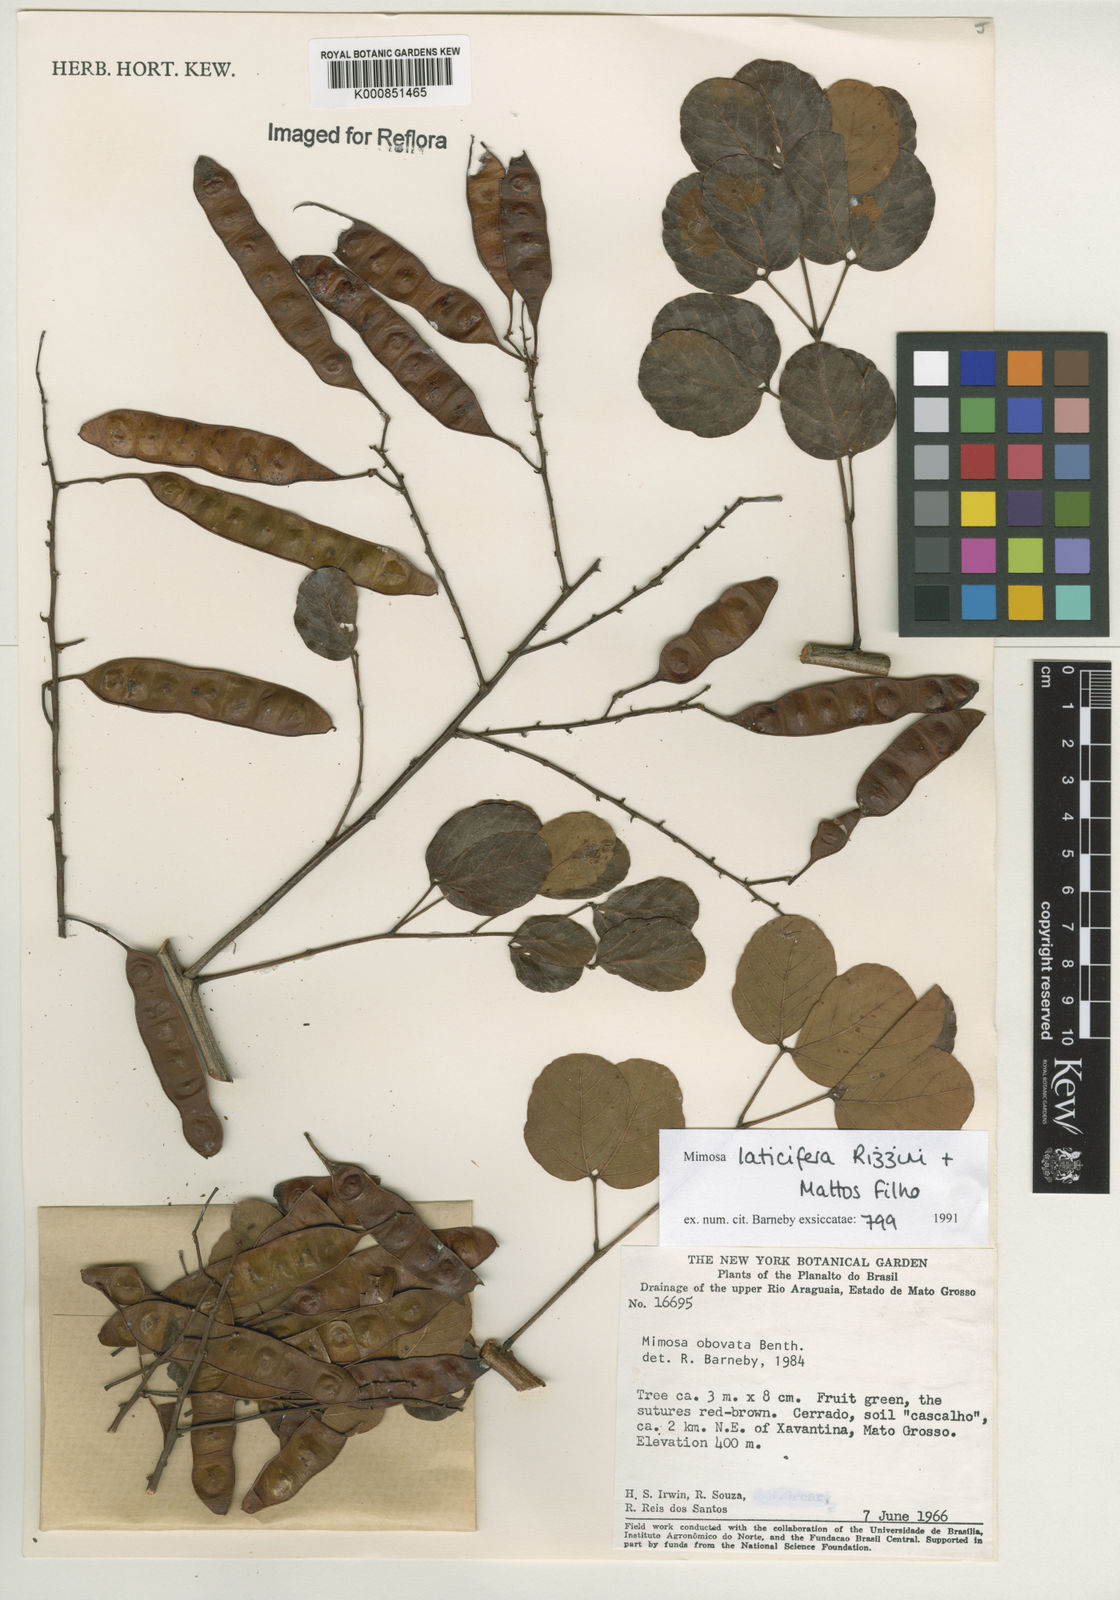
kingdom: Plantae
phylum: Tracheophyta
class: Magnoliopsida
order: Fabales
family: Fabaceae
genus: Mimosa
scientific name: Mimosa laticifera
